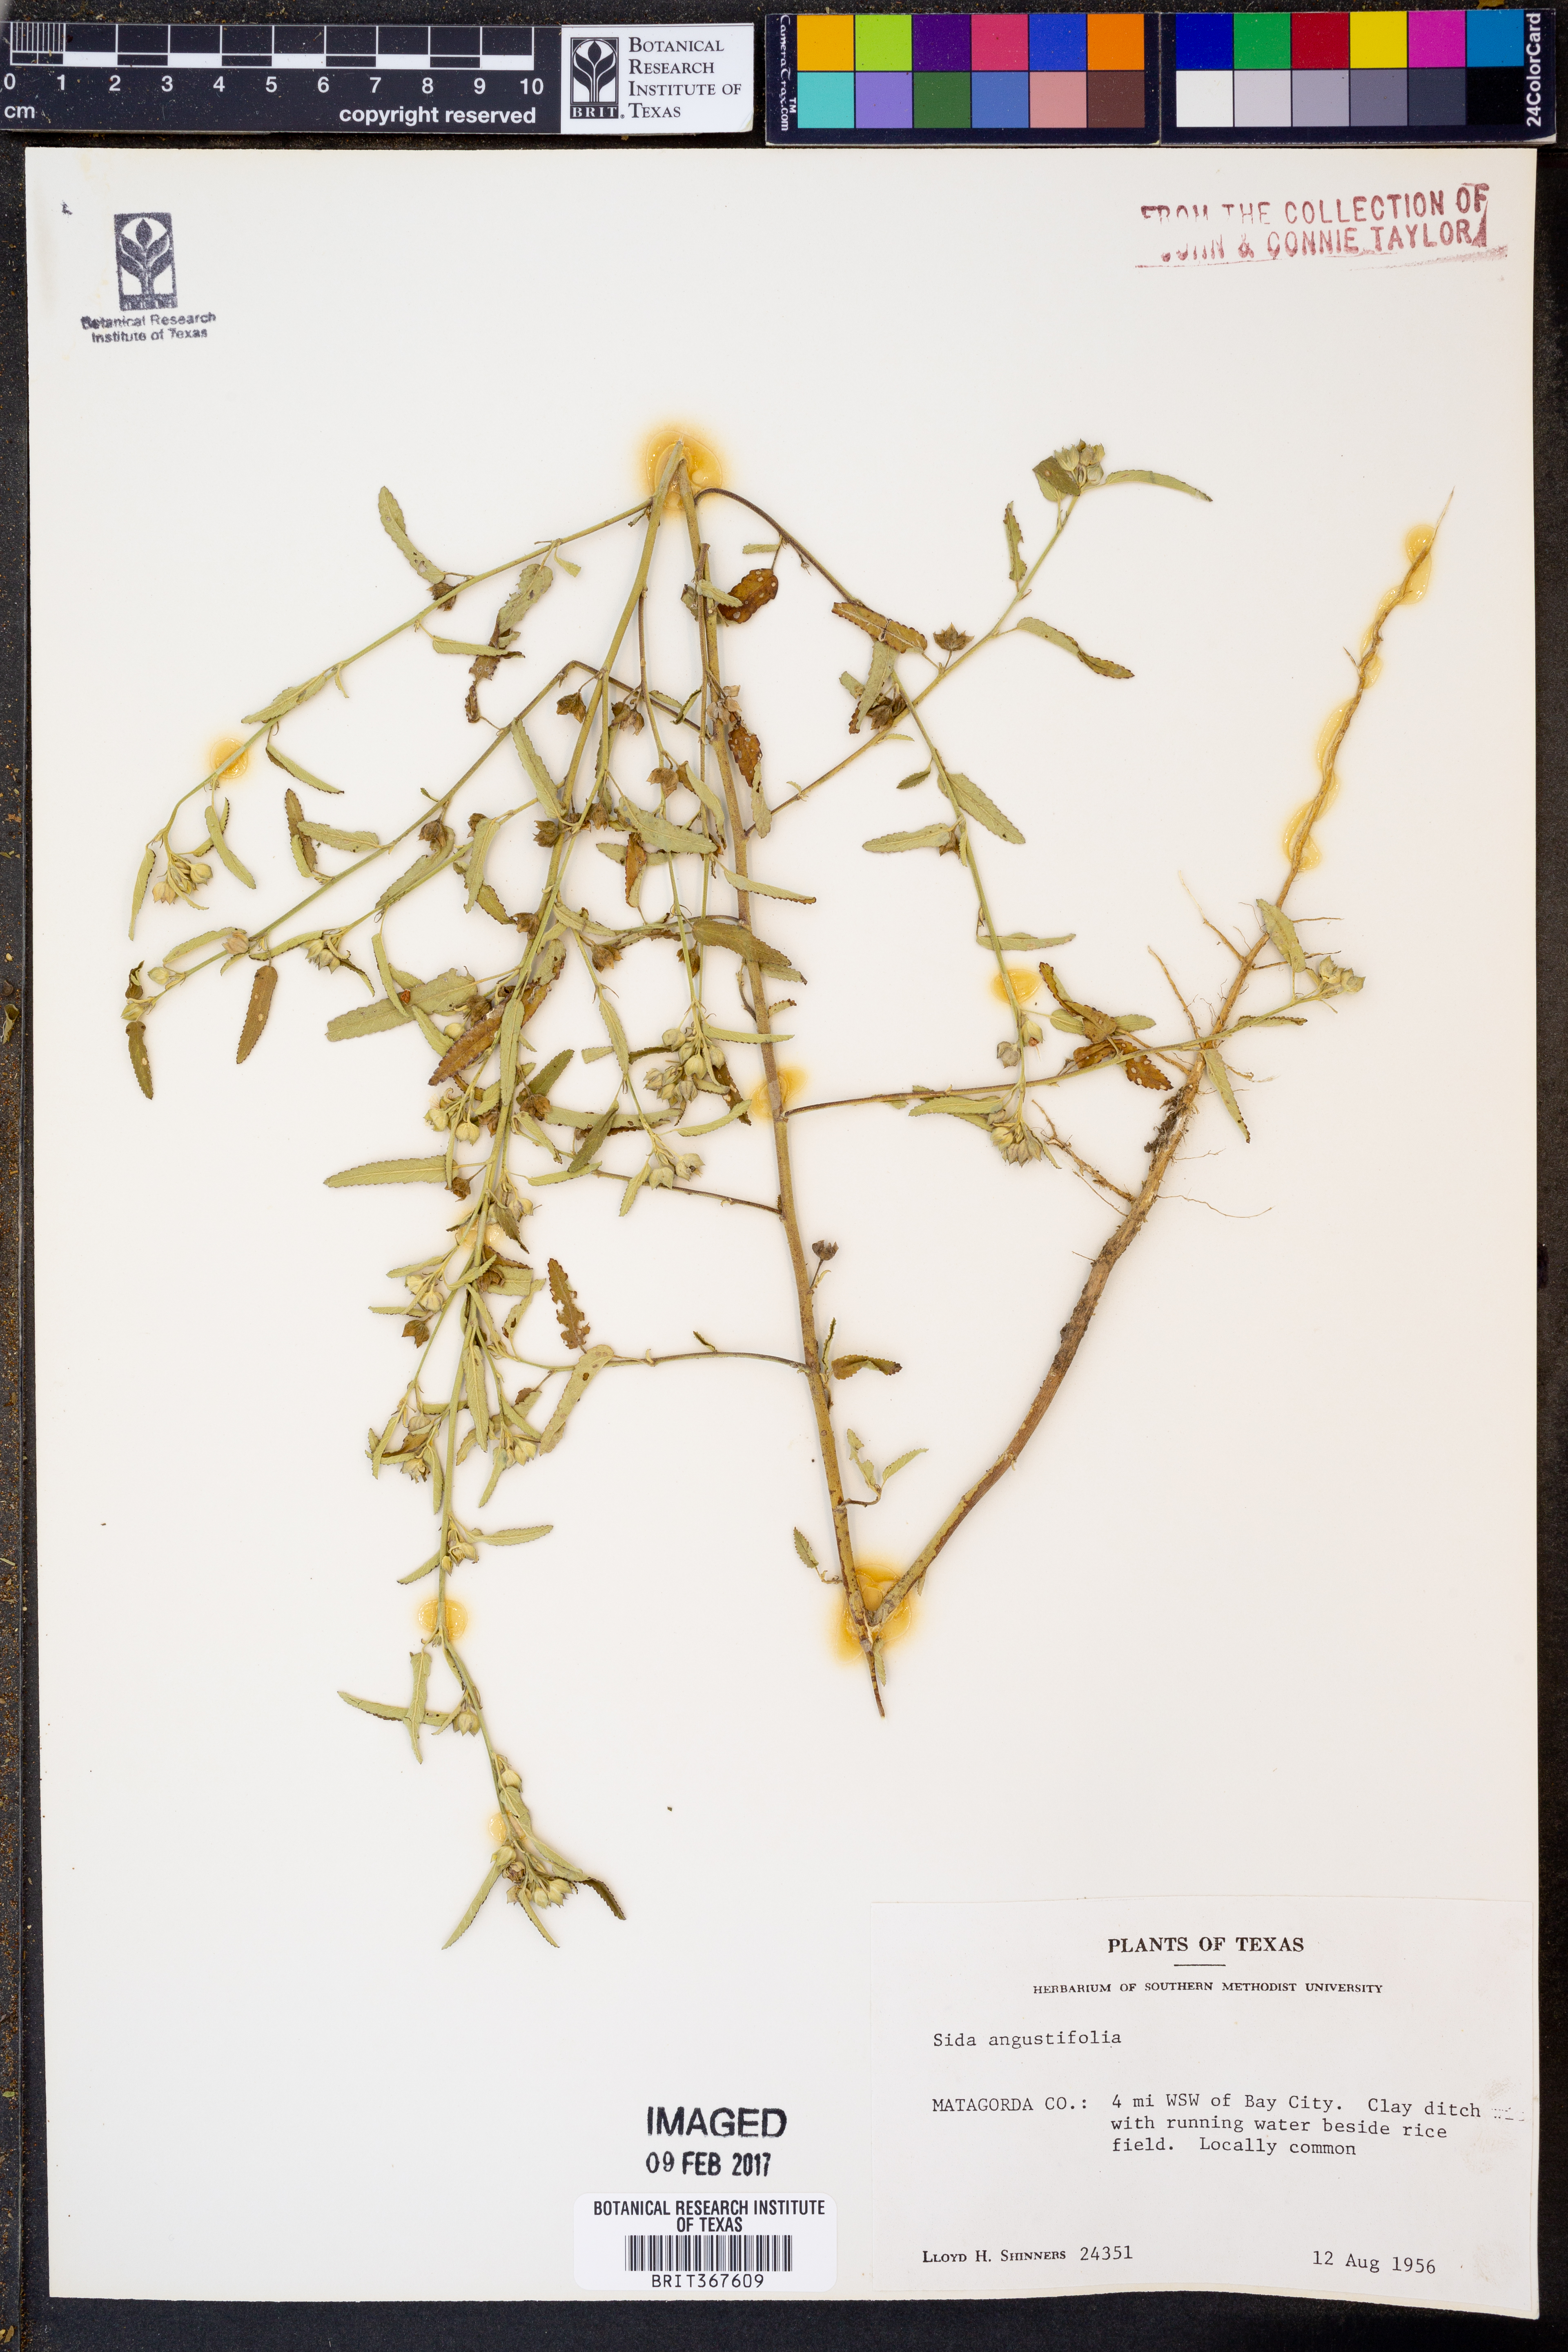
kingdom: Plantae
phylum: Tracheophyta
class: Magnoliopsida
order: Malvales
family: Malvaceae
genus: Sida
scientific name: Sida angustifolia
